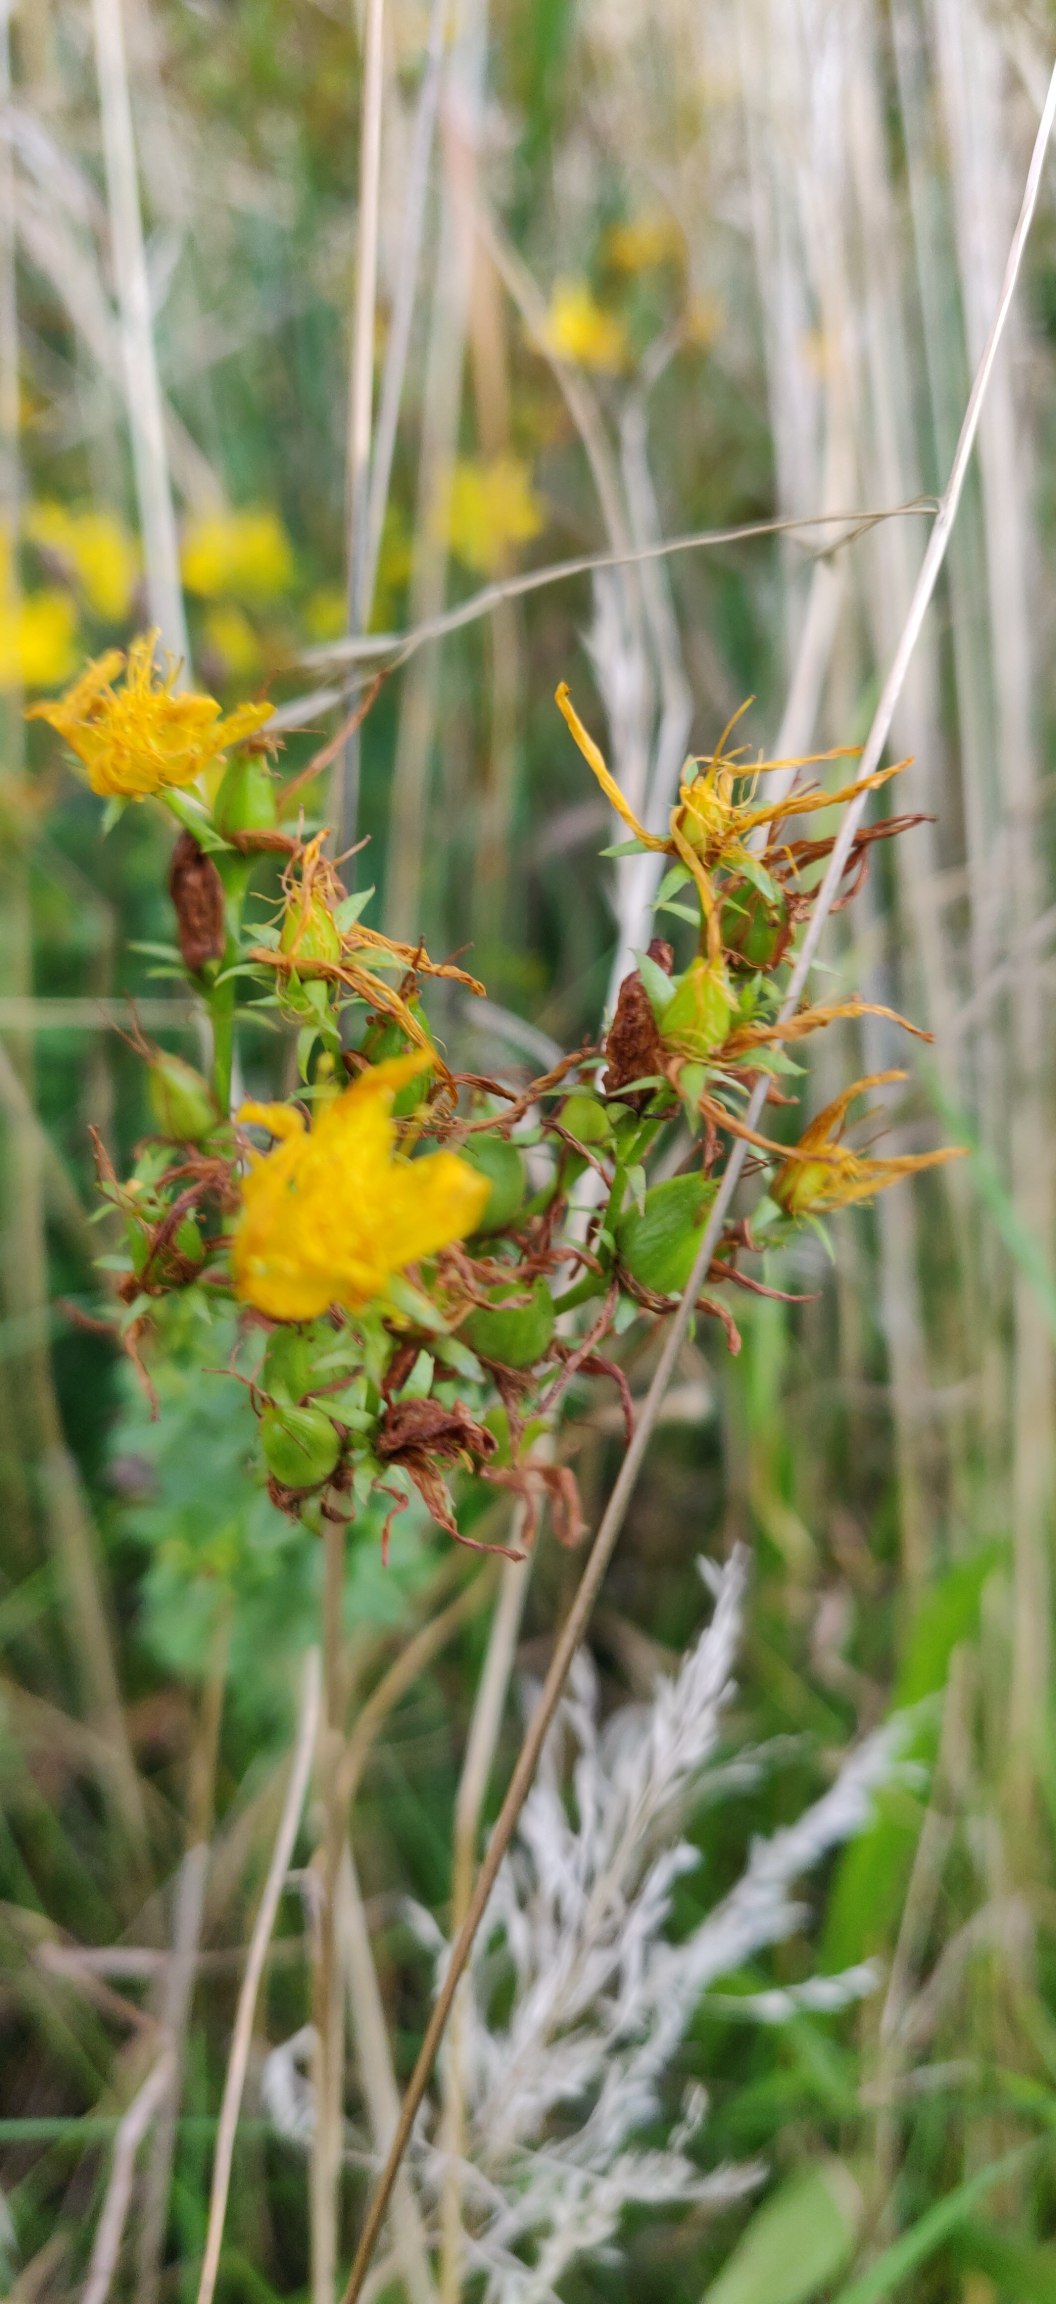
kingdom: Plantae
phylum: Tracheophyta
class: Magnoliopsida
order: Malpighiales
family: Hypericaceae
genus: Hypericum
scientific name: Hypericum perforatum
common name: Prikbladet perikon
